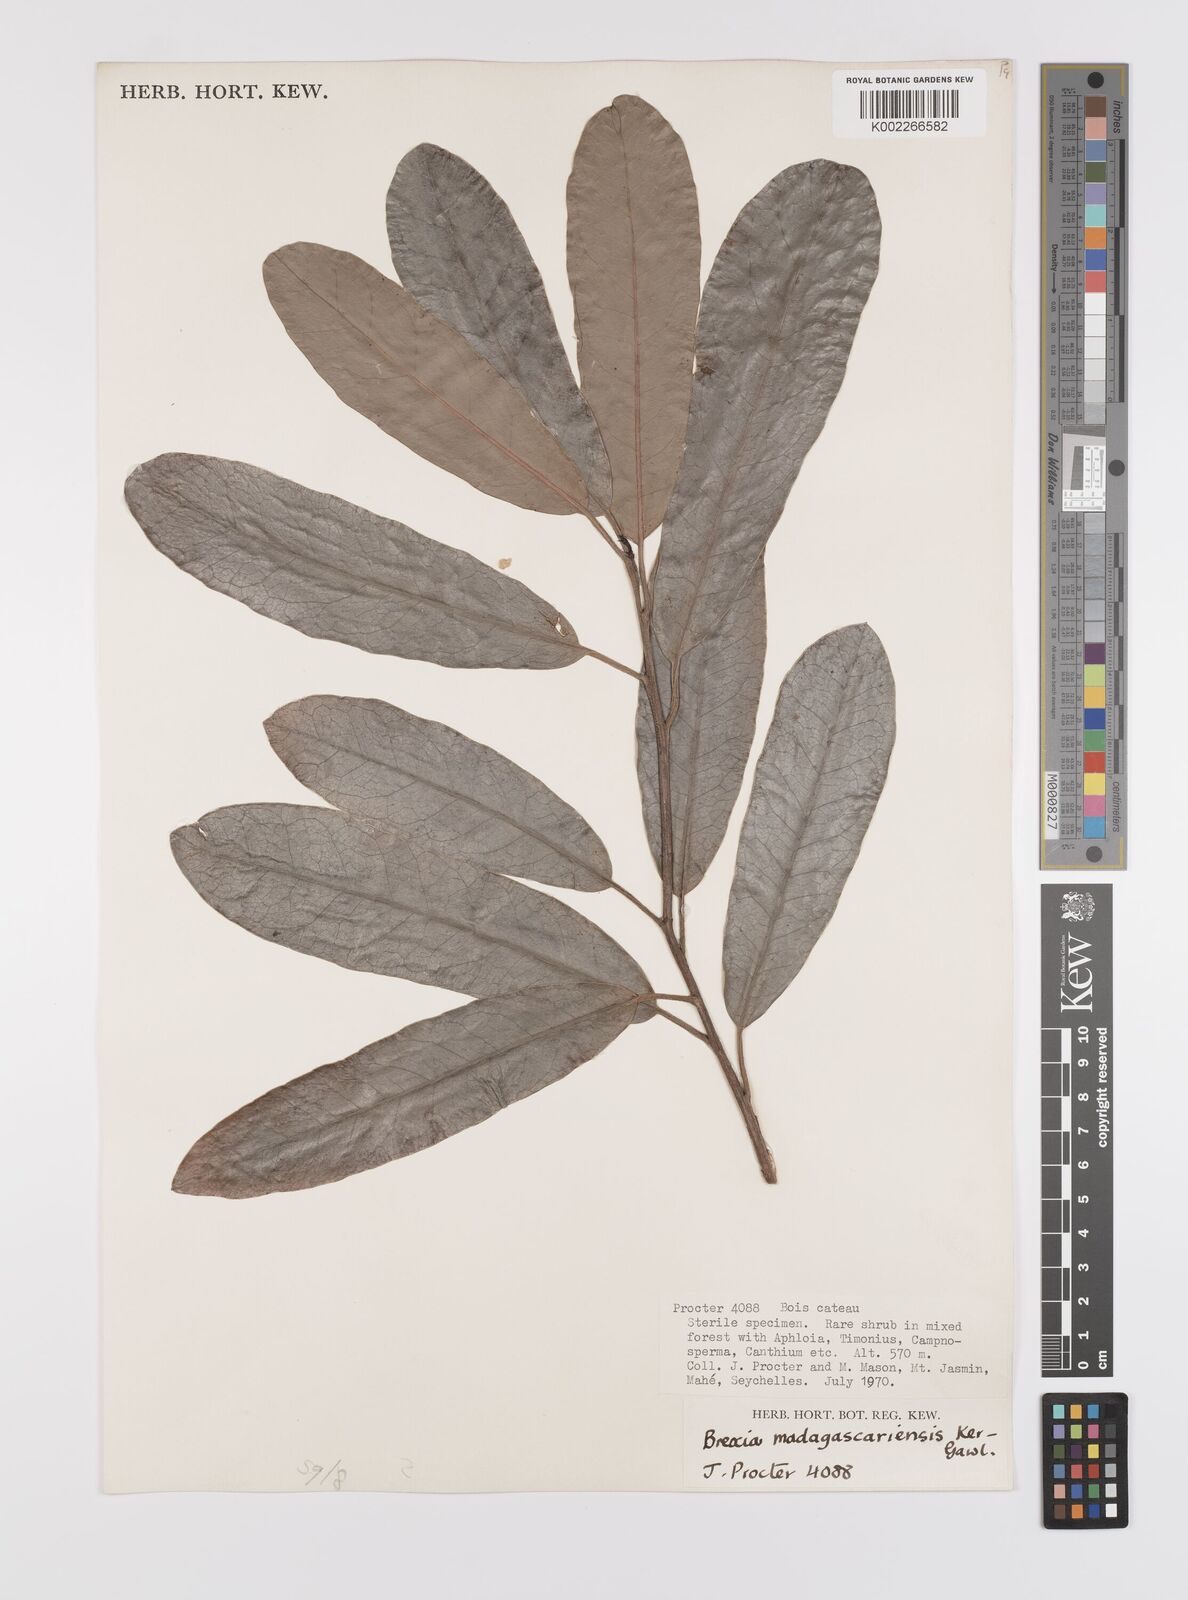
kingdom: Plantae
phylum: Tracheophyta
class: Magnoliopsida
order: Celastrales
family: Celastraceae
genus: Brexia
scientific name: Brexia madagascariensis
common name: Brexia
